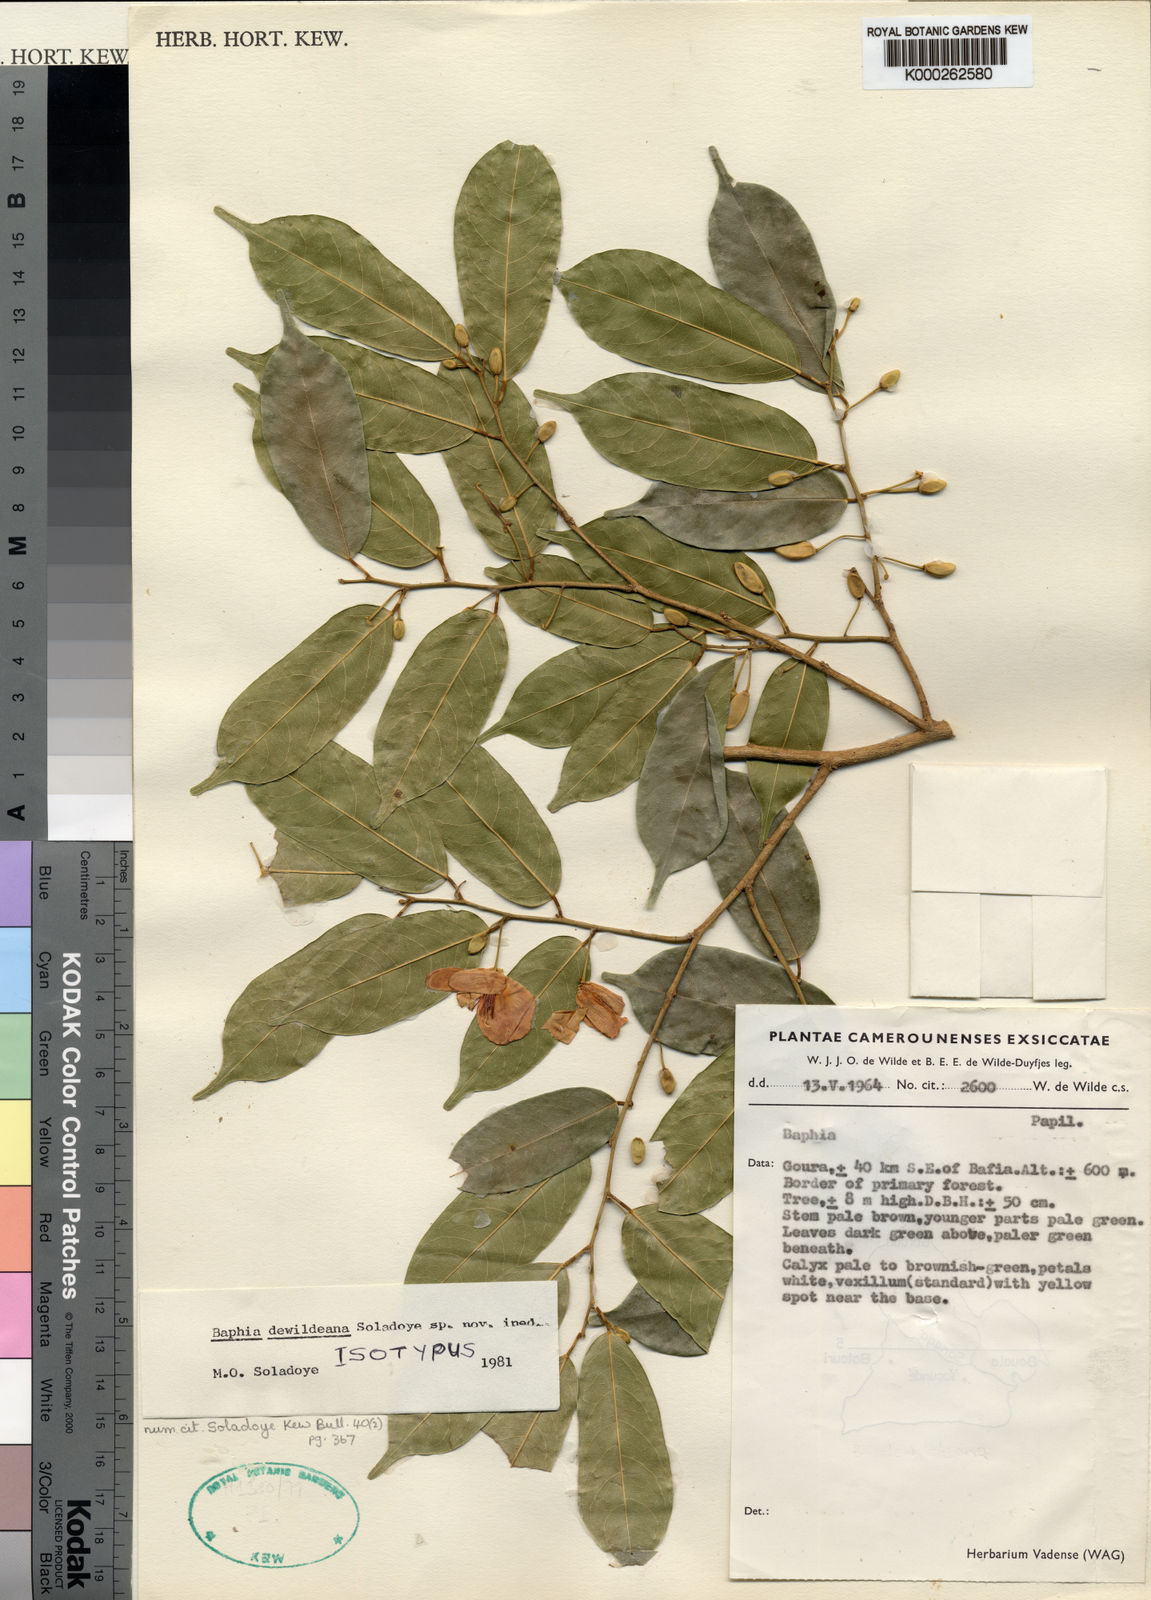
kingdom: Plantae
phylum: Tracheophyta
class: Magnoliopsida
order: Fabales
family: Fabaceae
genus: Baphia
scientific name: Baphia dewildeana
